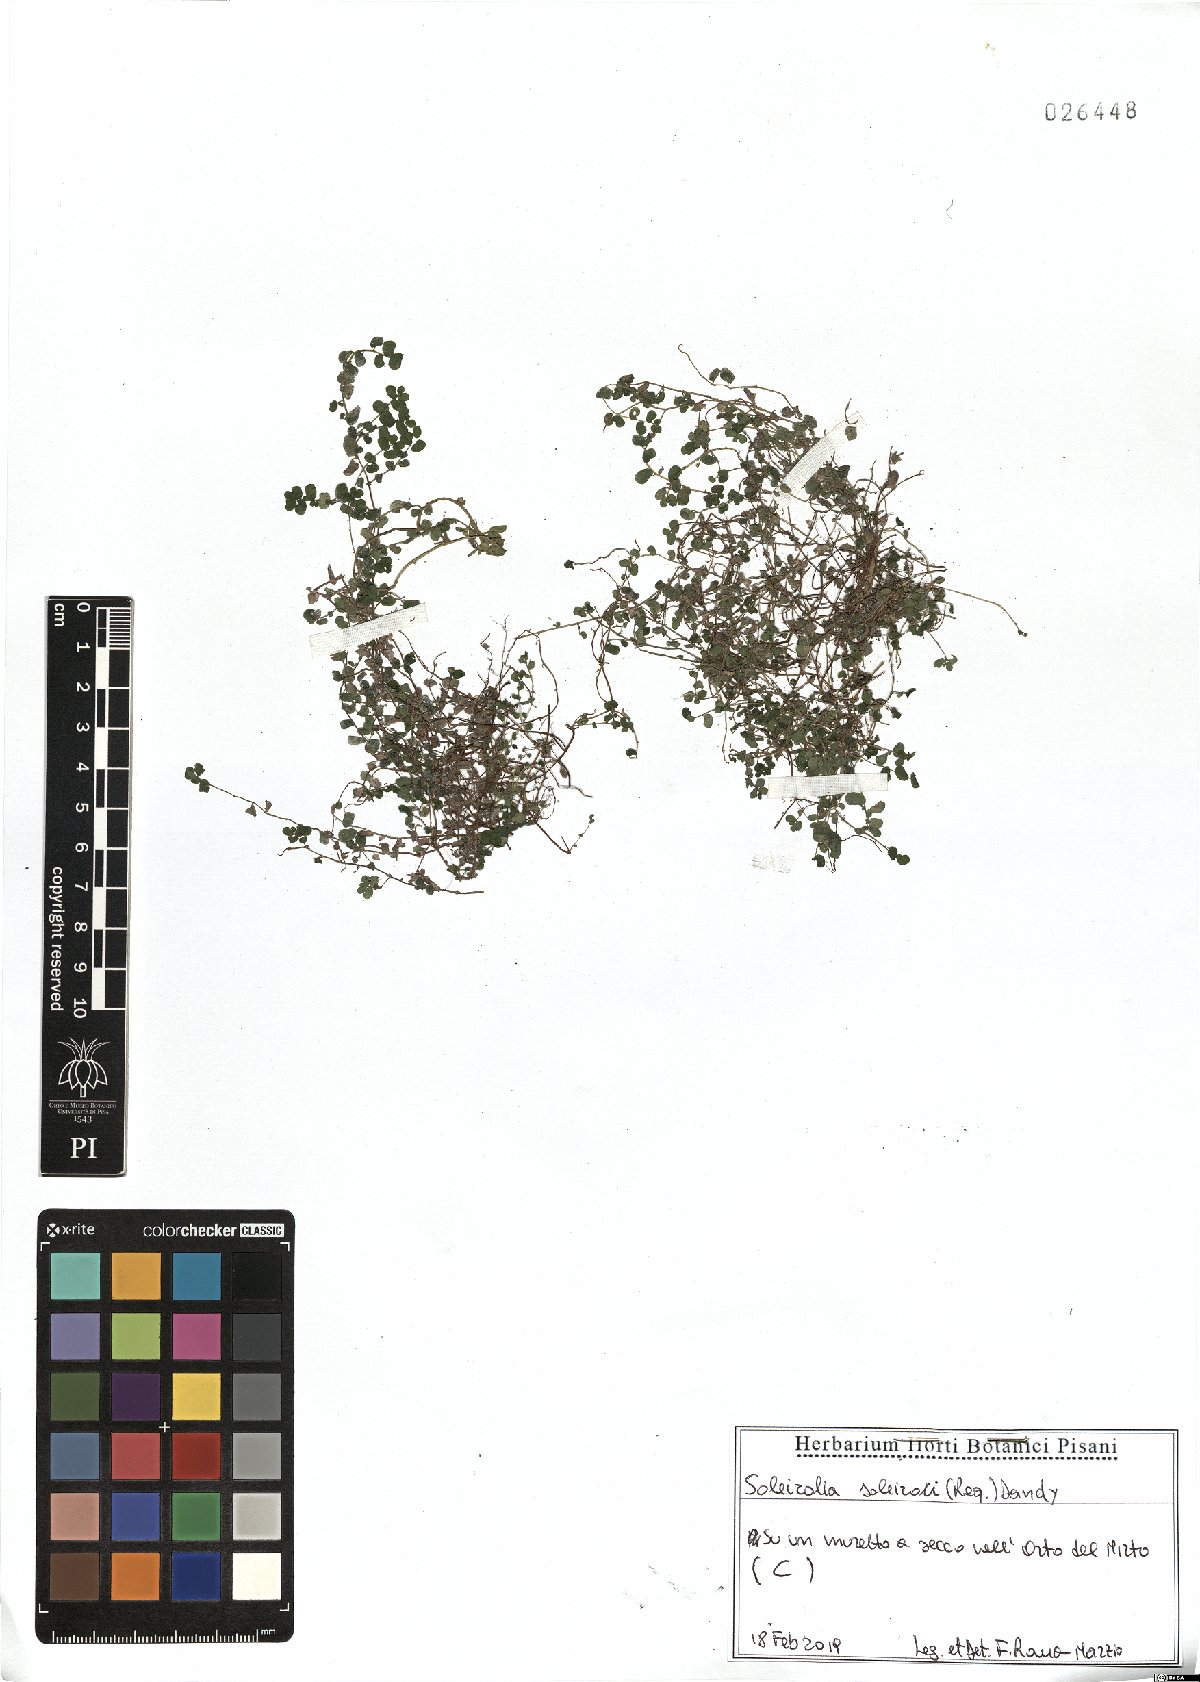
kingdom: Plantae
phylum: Tracheophyta
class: Magnoliopsida
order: Rosales
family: Urticaceae
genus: Soleirolia
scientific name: Soleirolia soleirolii
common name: Mind-your-own-business
